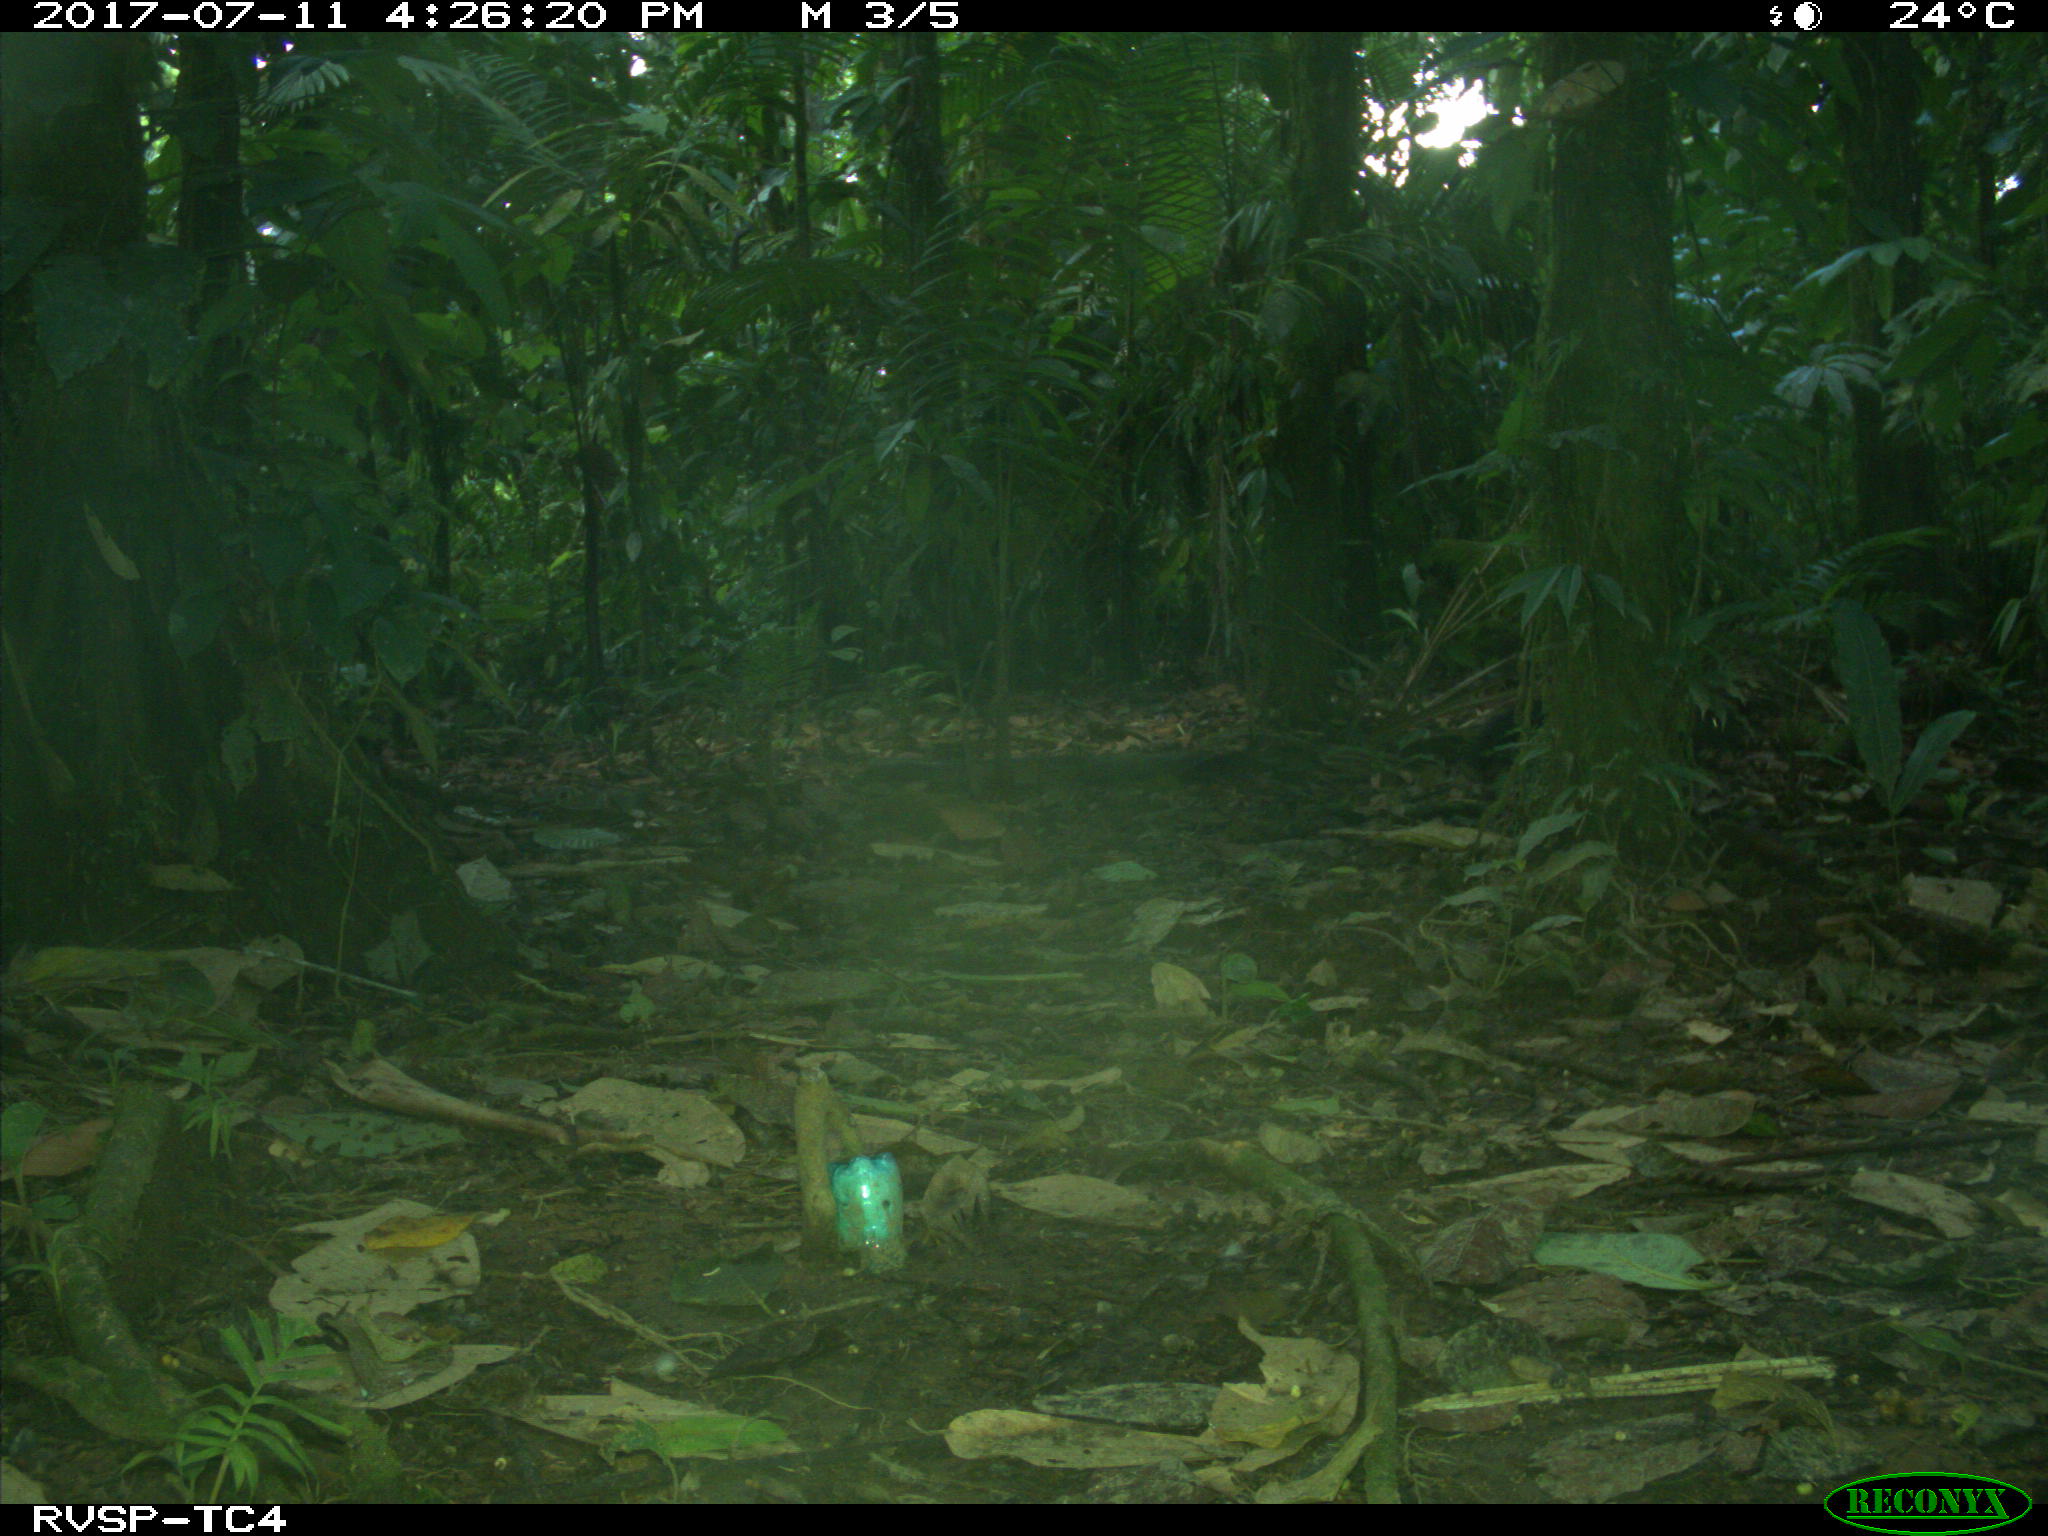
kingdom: Animalia
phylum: Chordata
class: Mammalia
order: Carnivora
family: Mustelidae
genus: Eira
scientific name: Eira barbara
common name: Tayra
